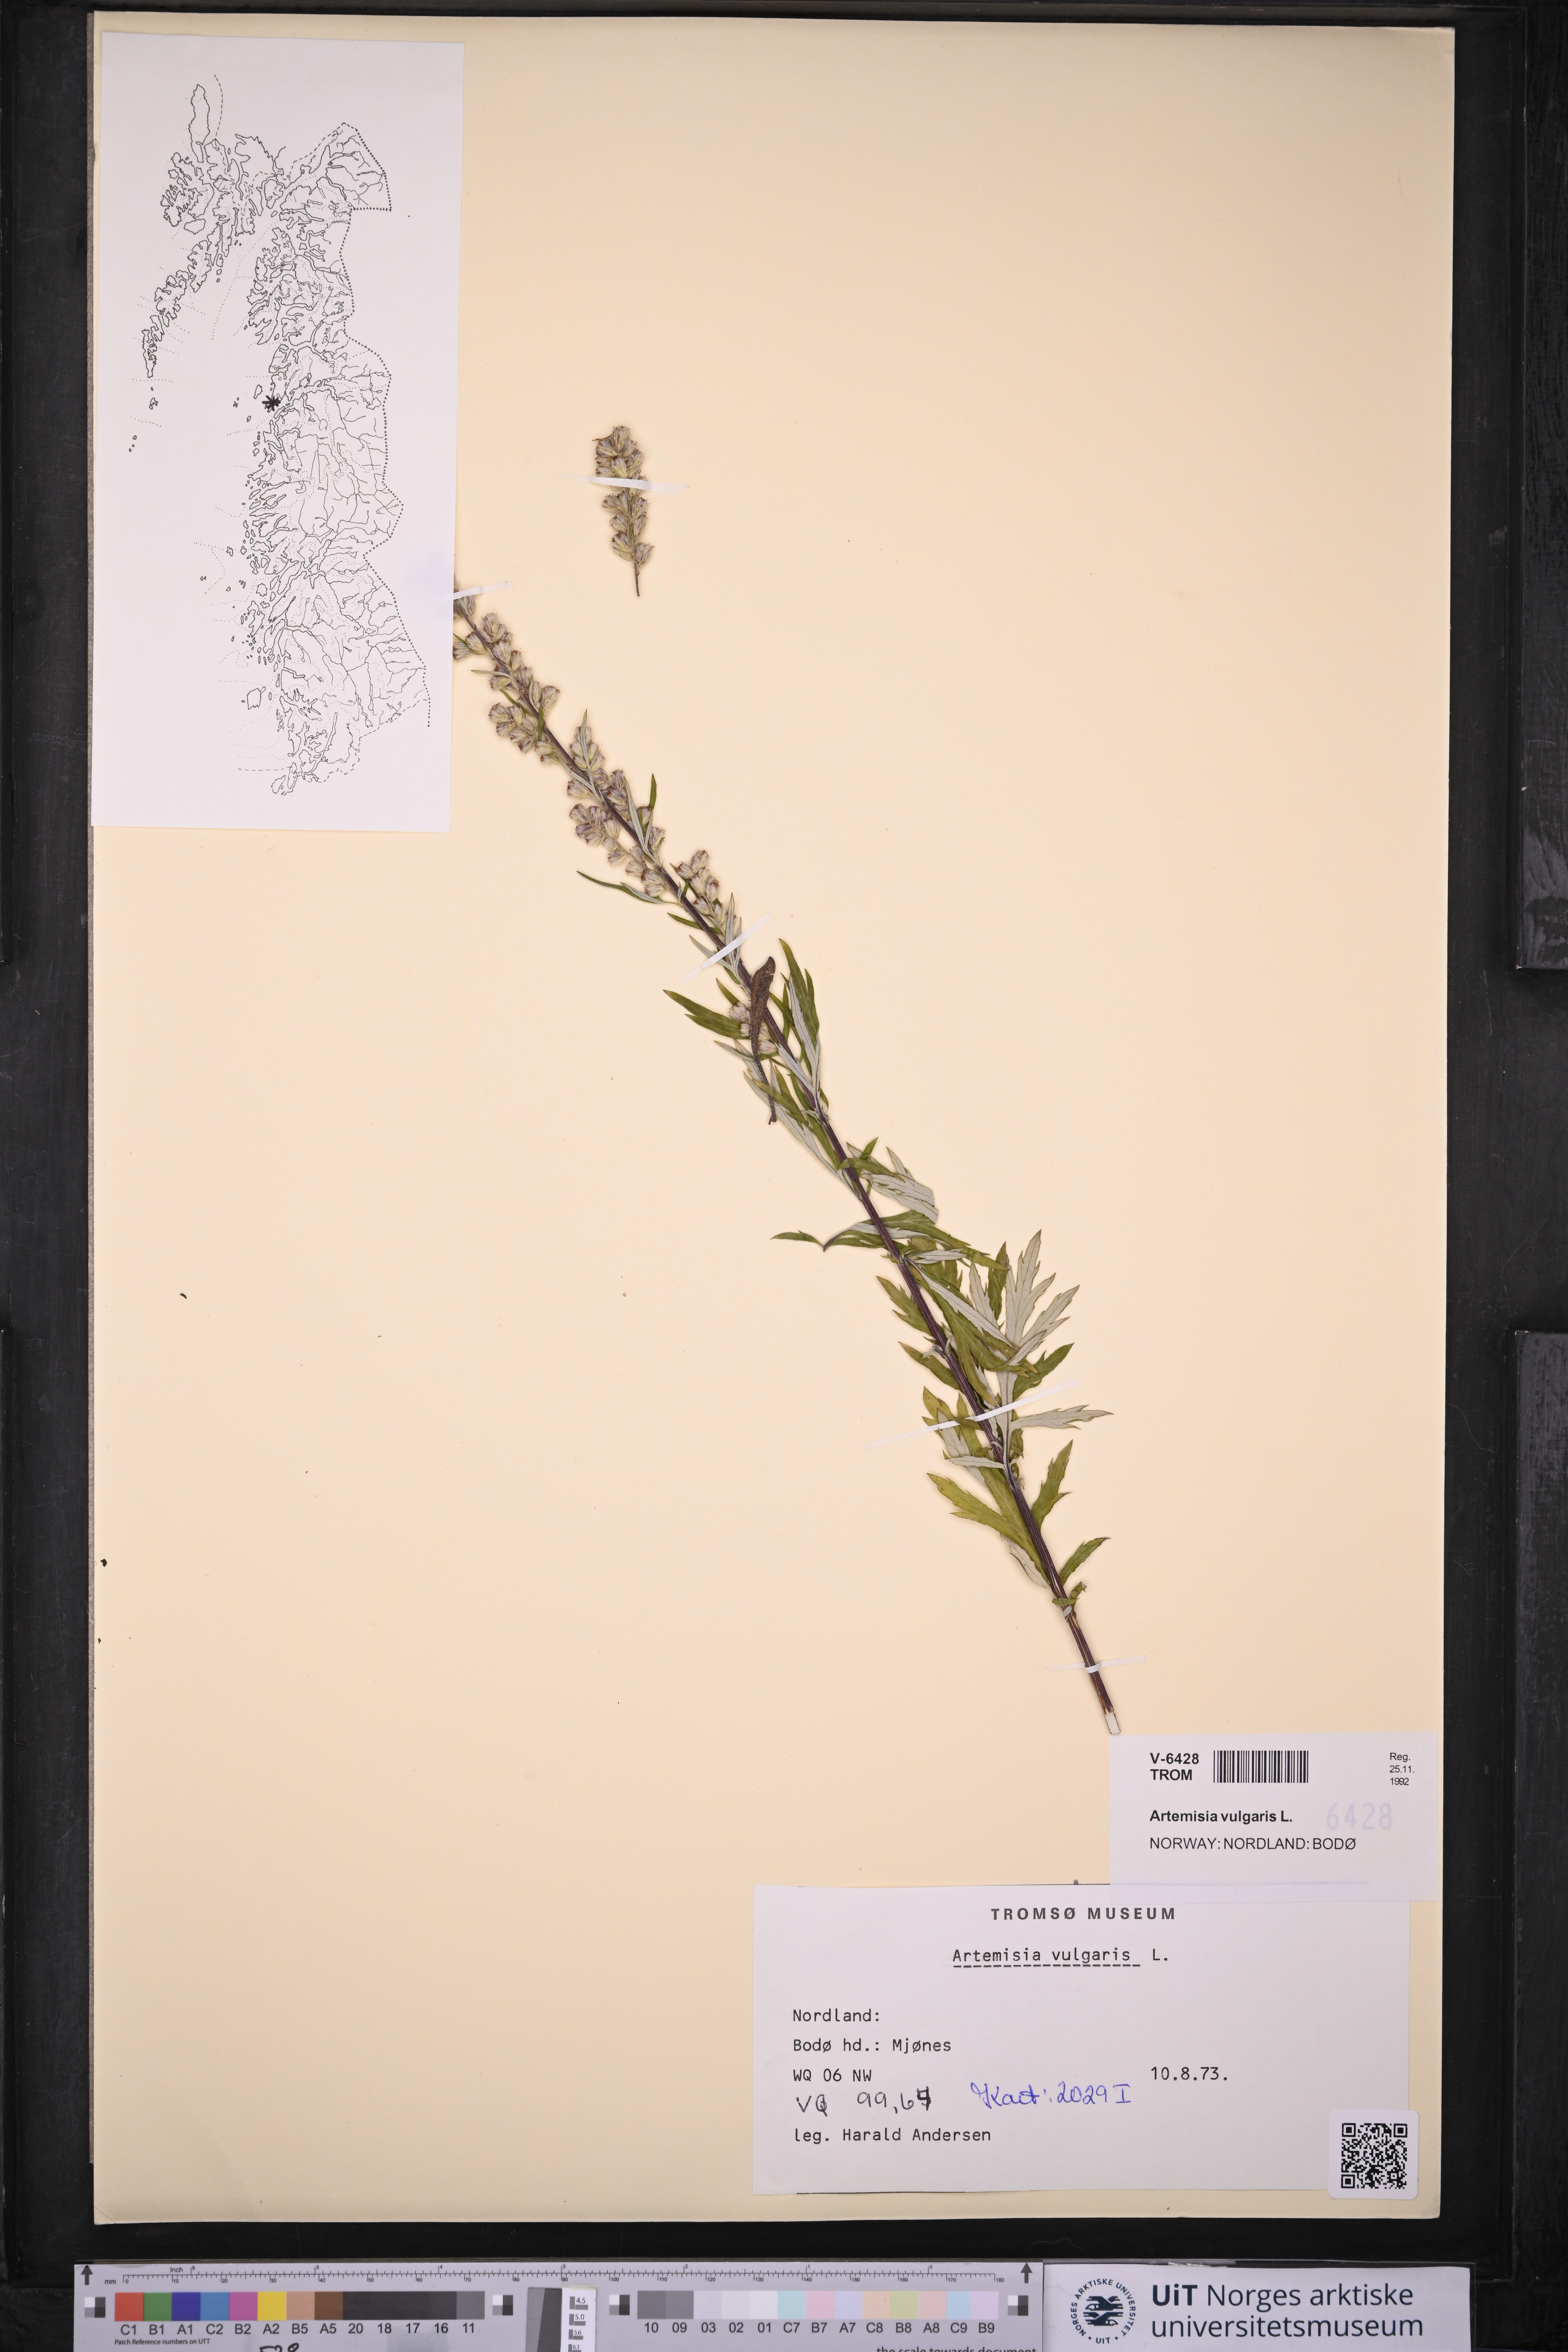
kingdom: Plantae
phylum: Tracheophyta
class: Magnoliopsida
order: Asterales
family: Asteraceae
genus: Artemisia
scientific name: Artemisia vulgaris
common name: Mugwort
